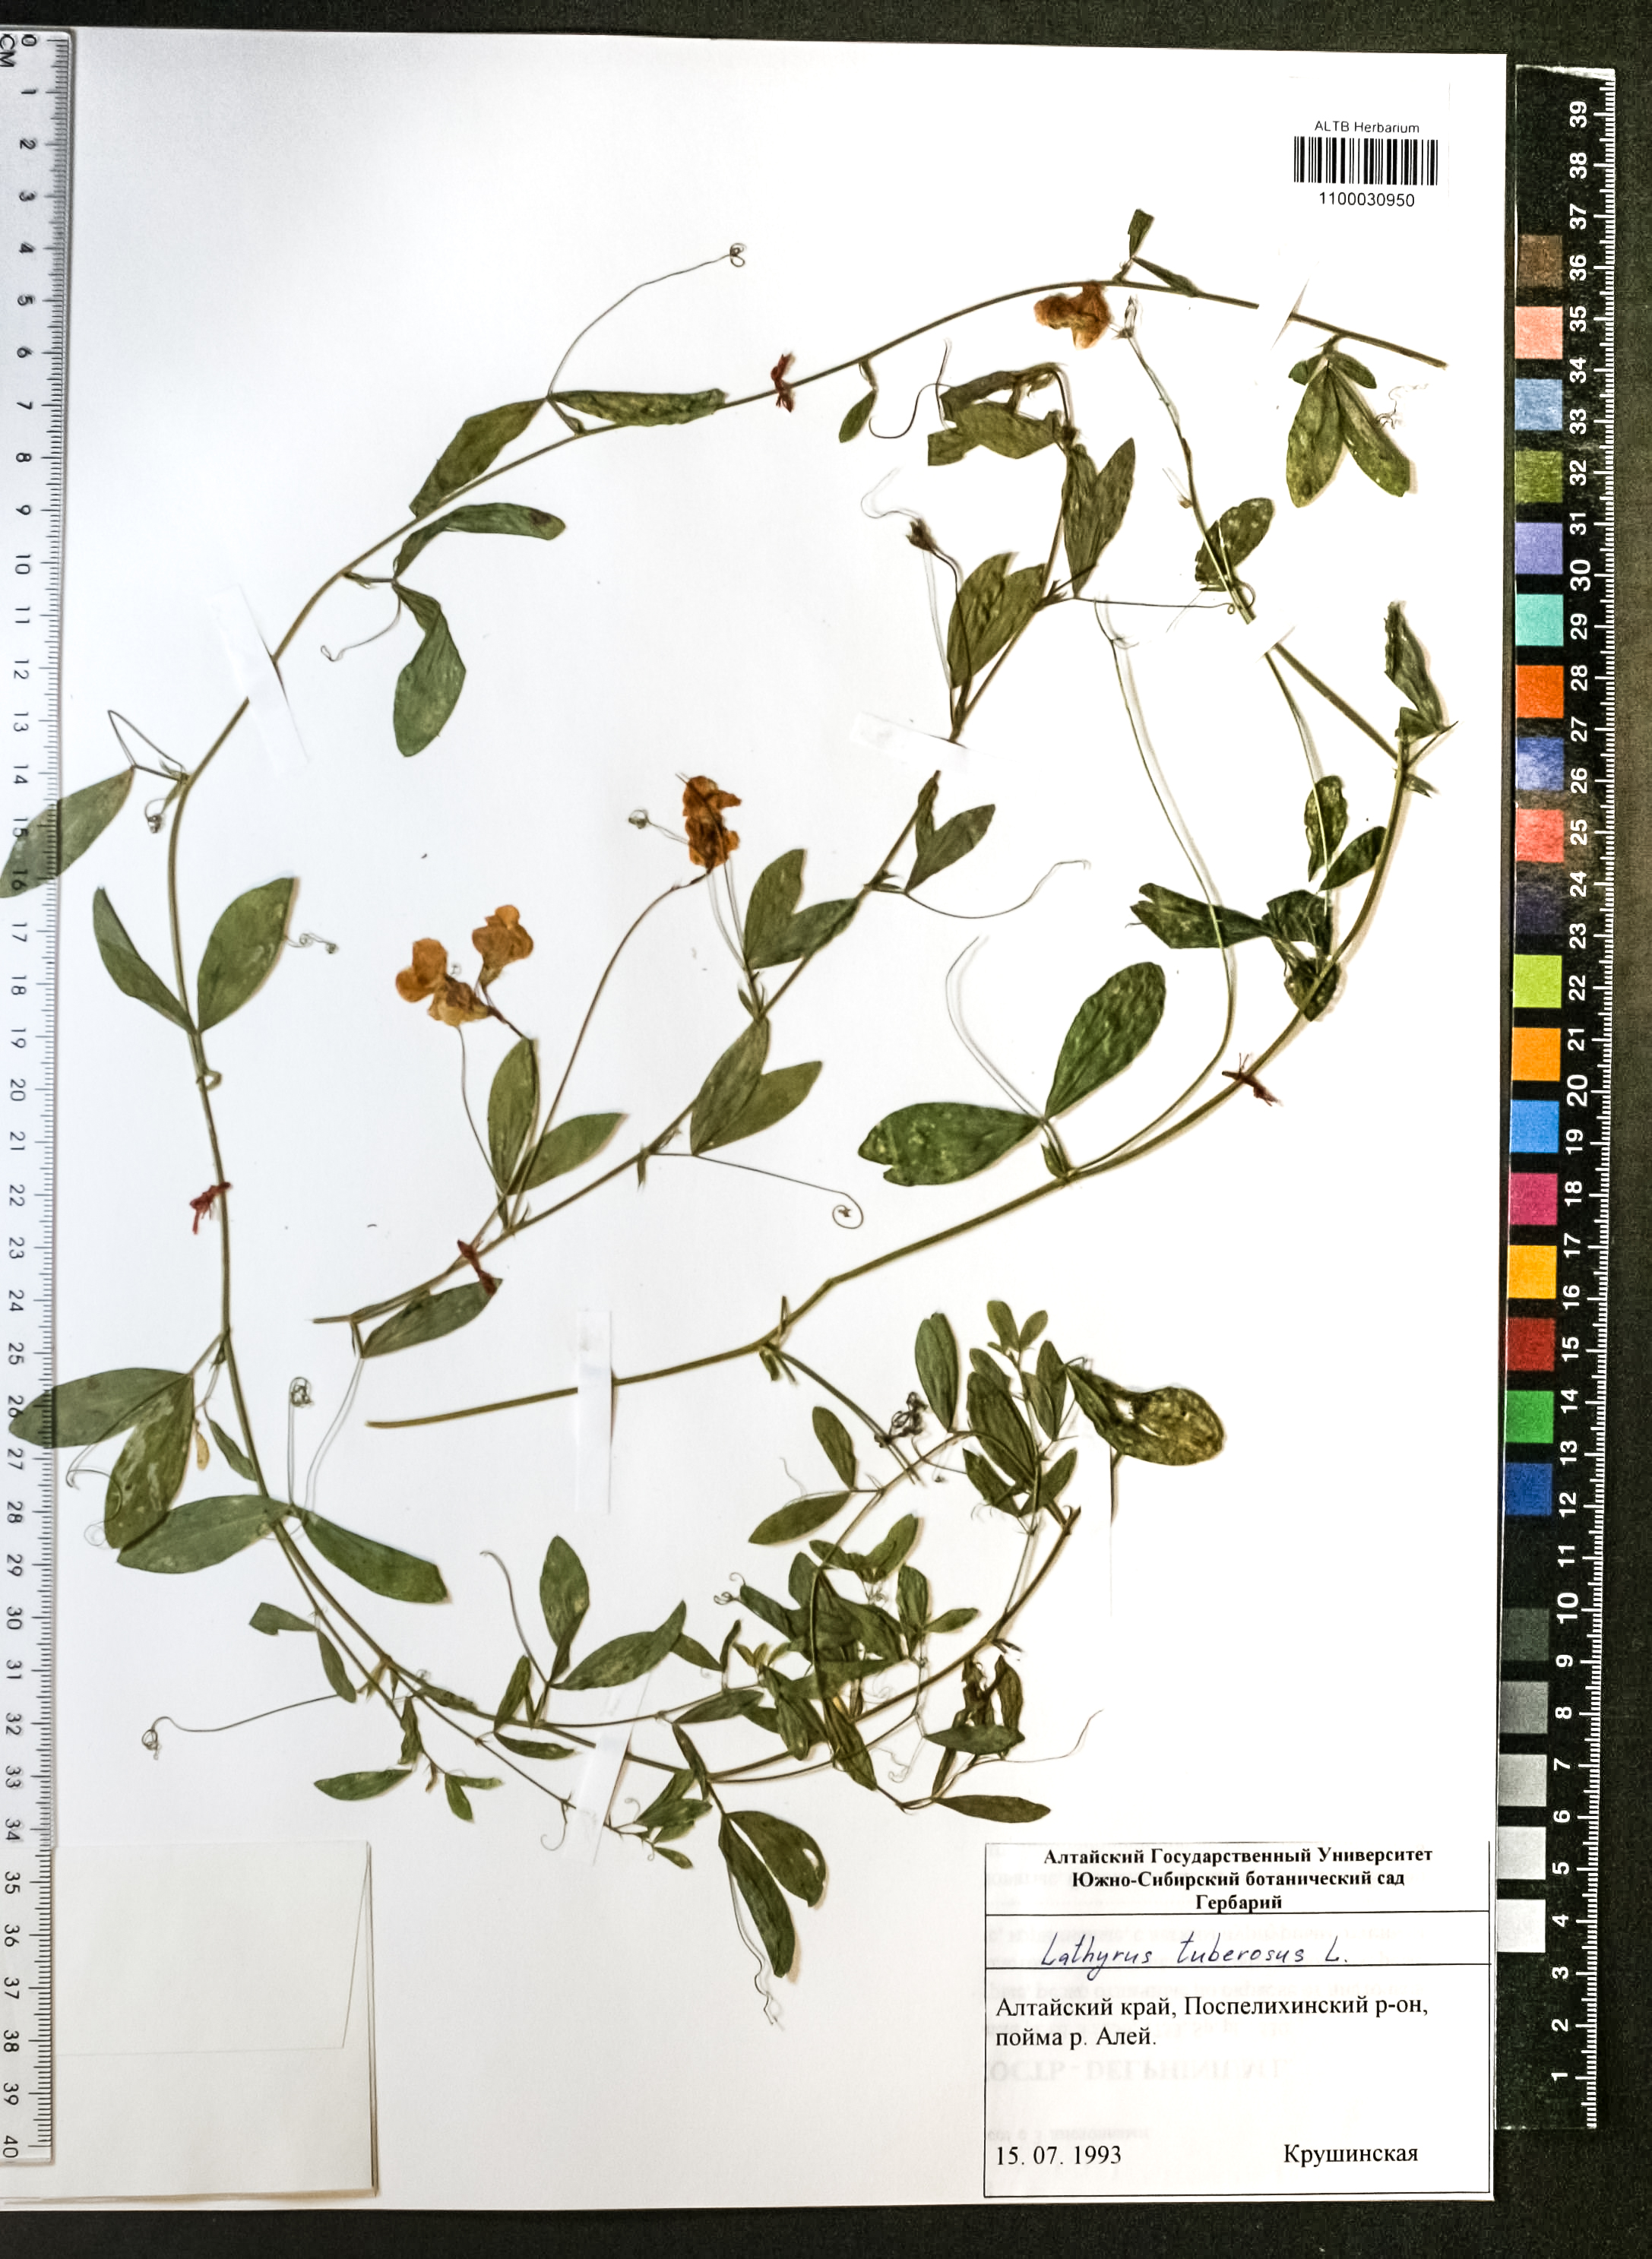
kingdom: Plantae
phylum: Tracheophyta
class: Magnoliopsida
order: Fabales
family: Fabaceae
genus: Lathyrus
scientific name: Lathyrus tuberosus
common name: Tuberous pea
